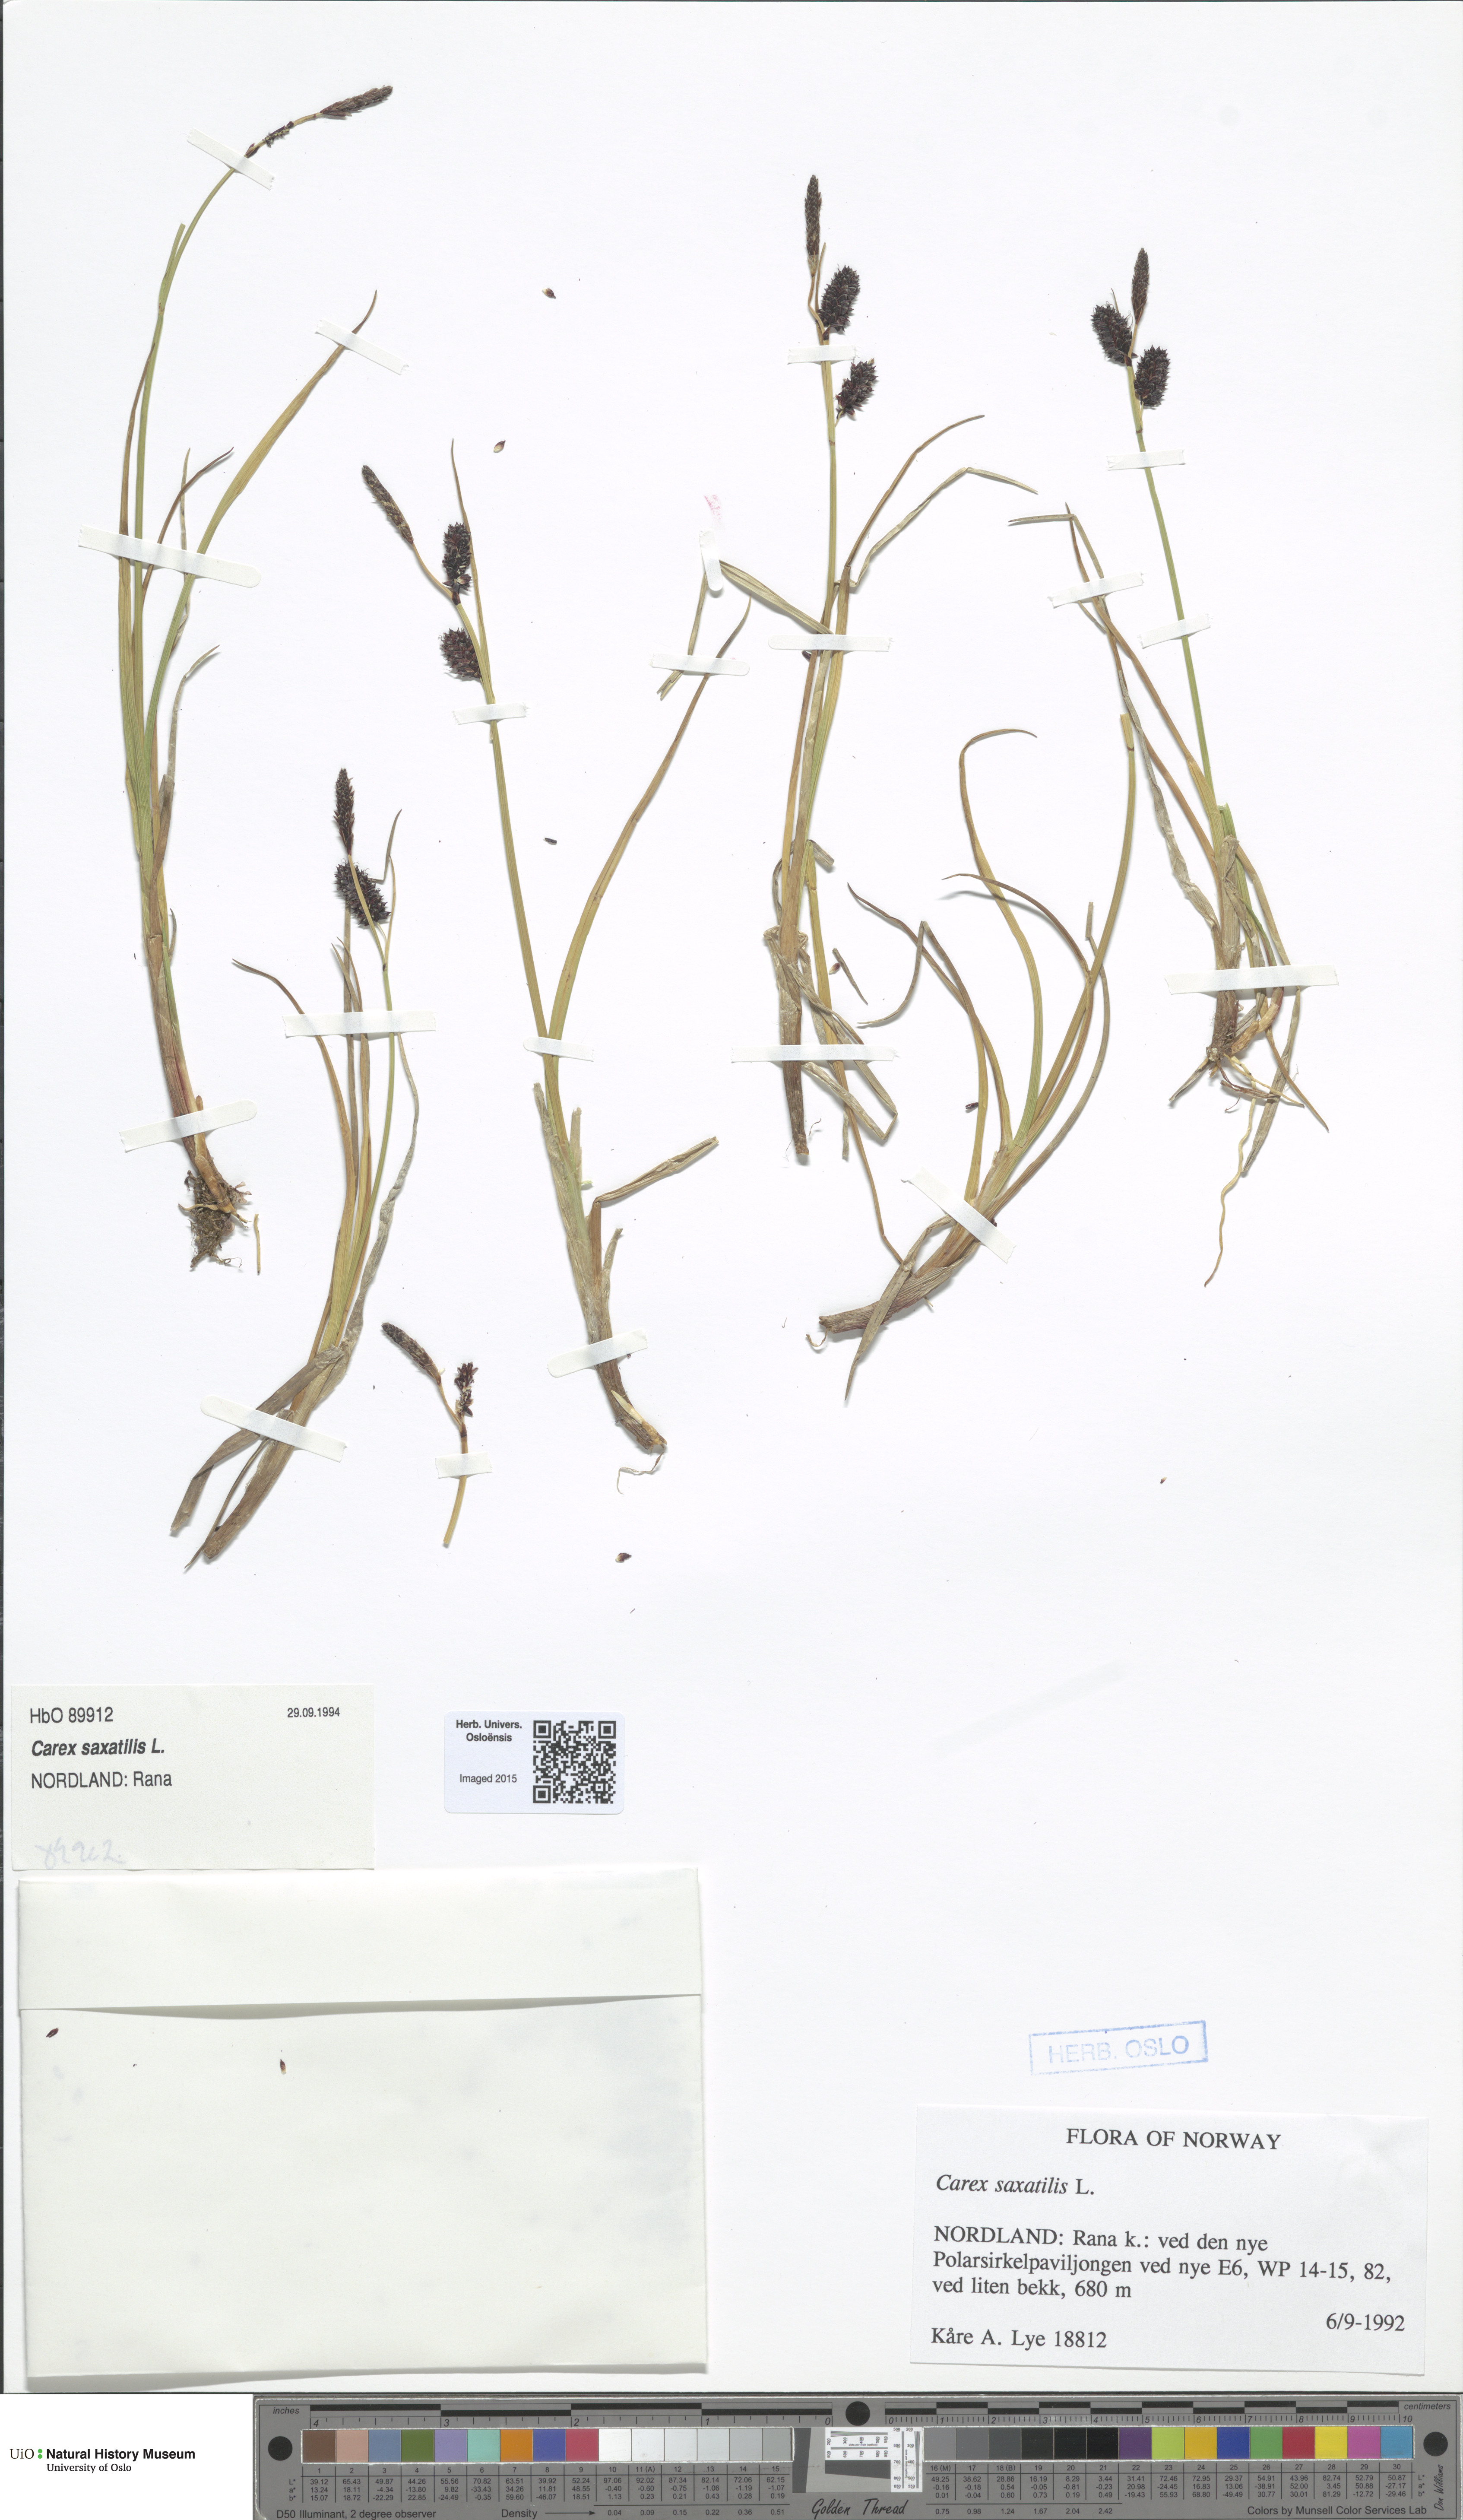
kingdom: Plantae
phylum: Tracheophyta
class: Liliopsida
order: Poales
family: Cyperaceae
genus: Carex
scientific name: Carex saxatilis
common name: Russet sedge
